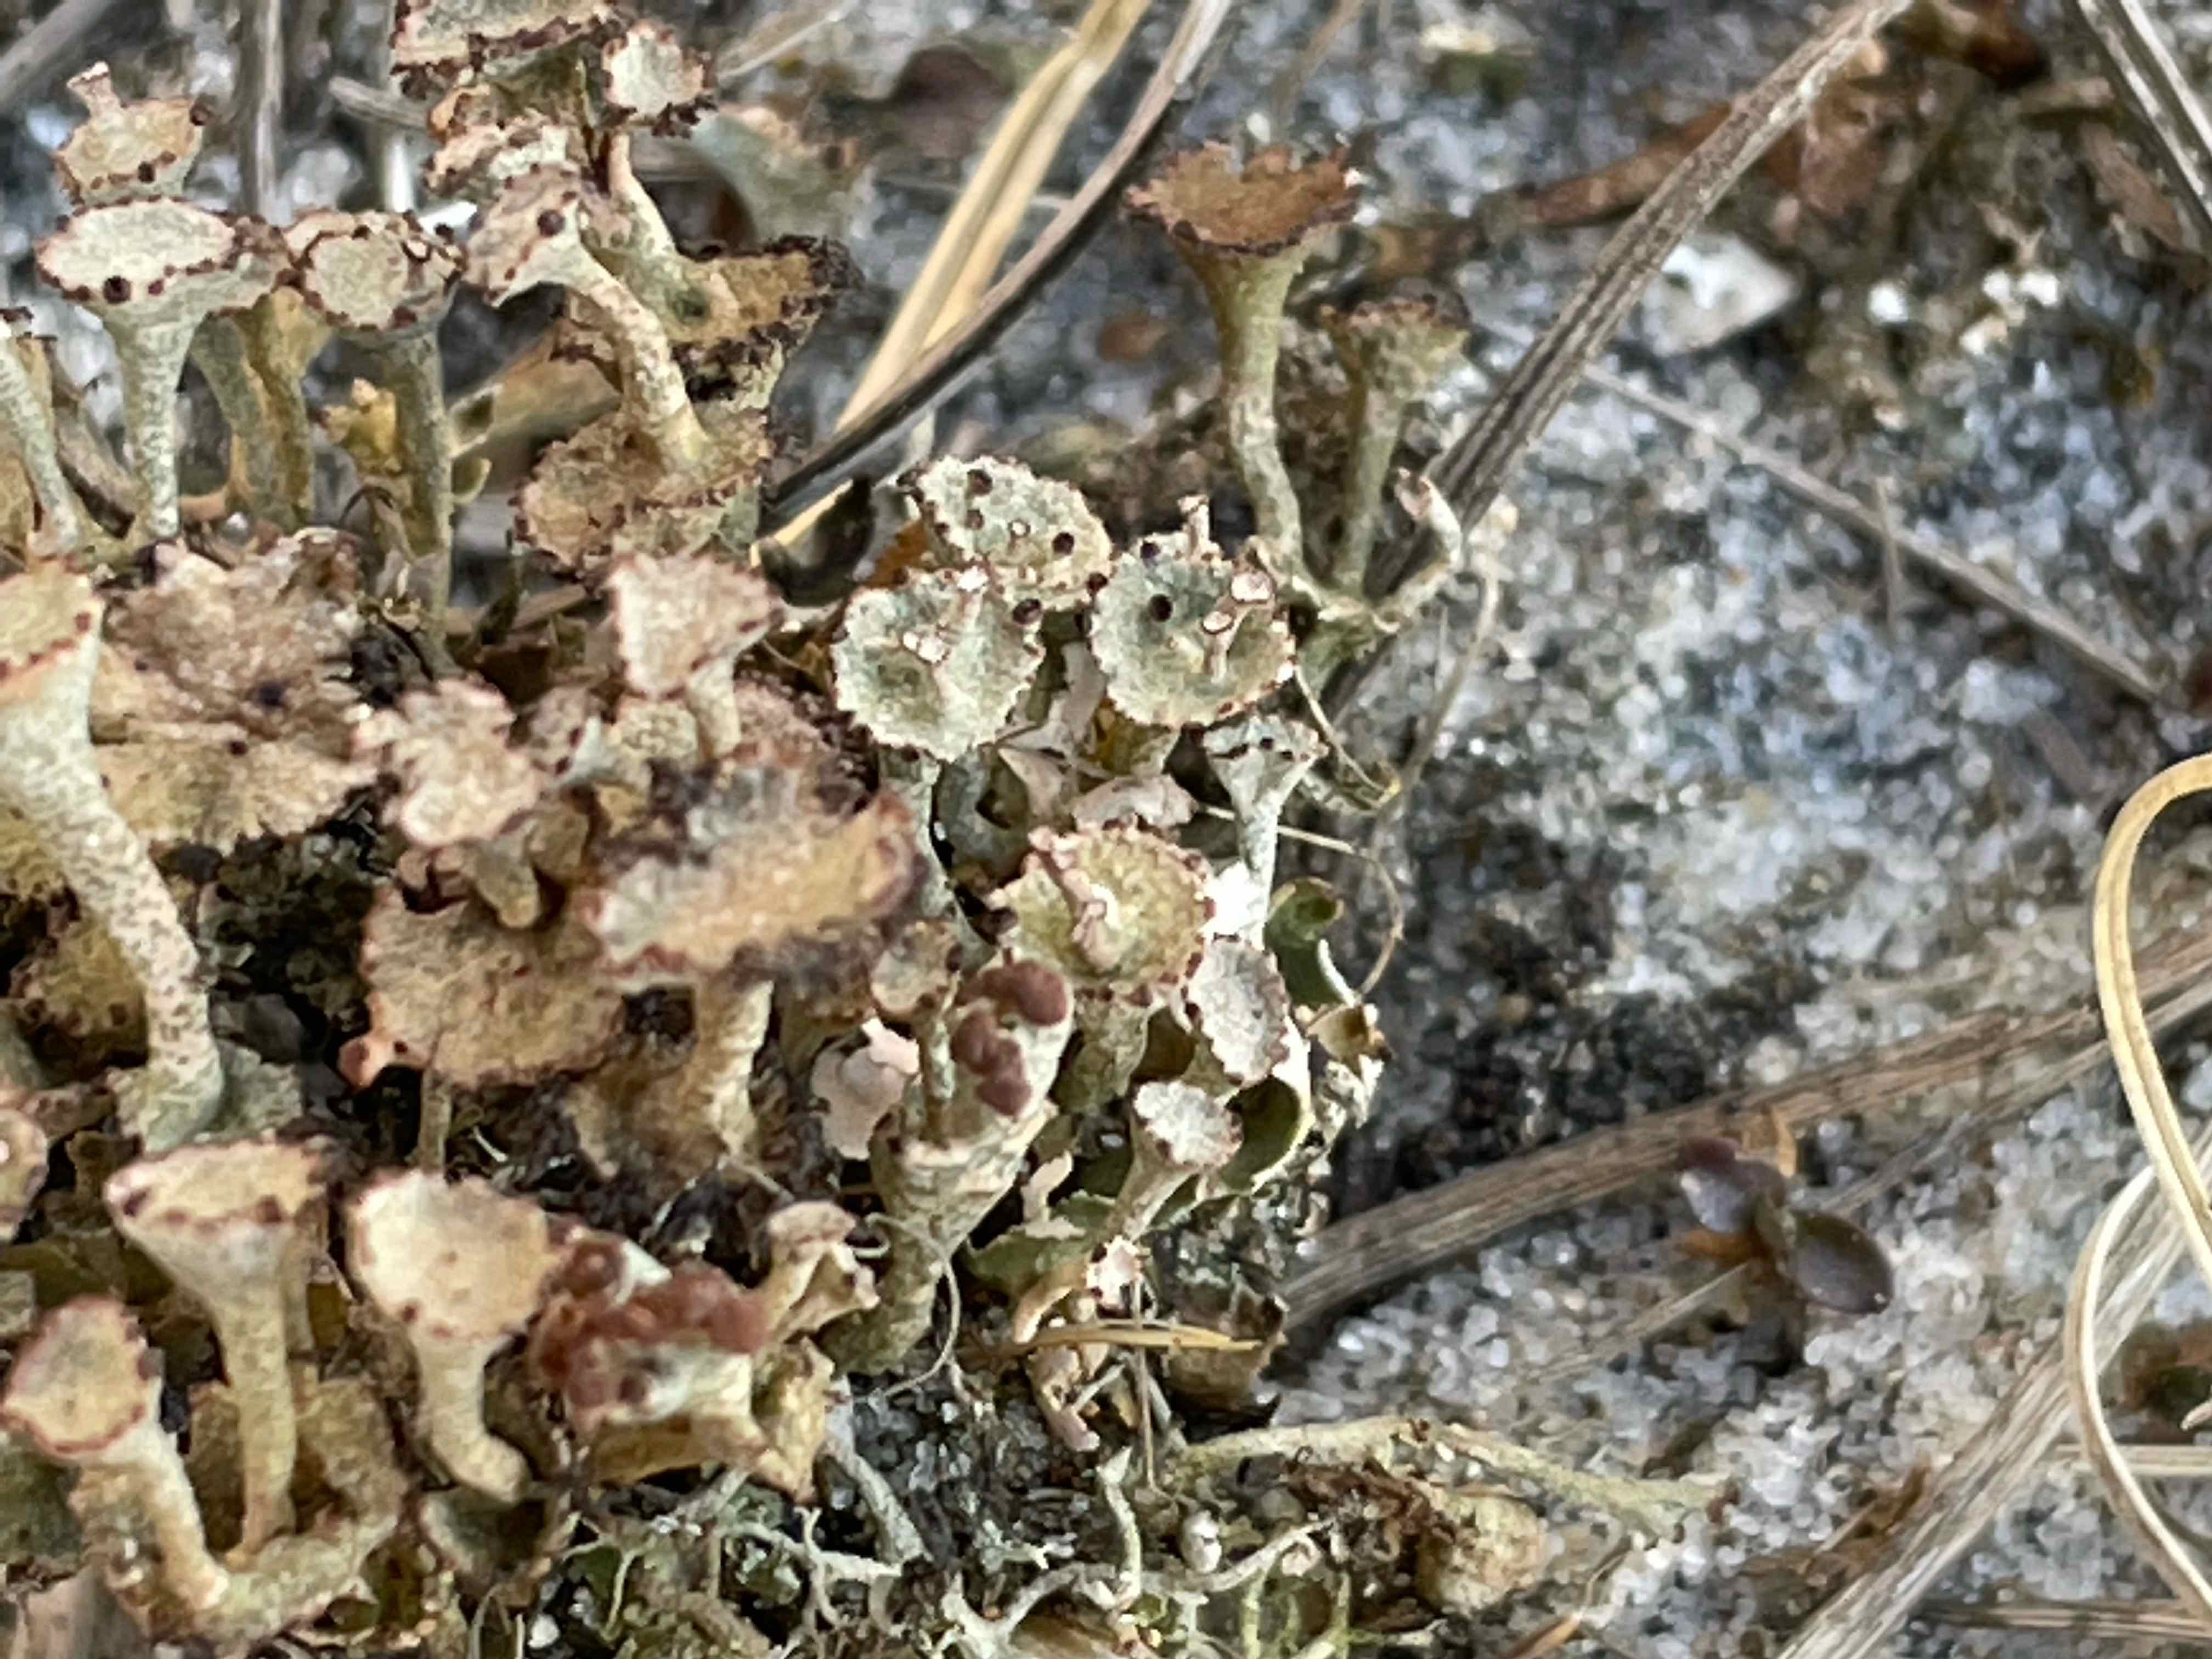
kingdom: Fungi
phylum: Ascomycota
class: Lecanoromycetes
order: Lecanorales
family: Cladoniaceae
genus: Cladonia
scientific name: Cladonia cervicornis
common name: gevir-bægerlav
